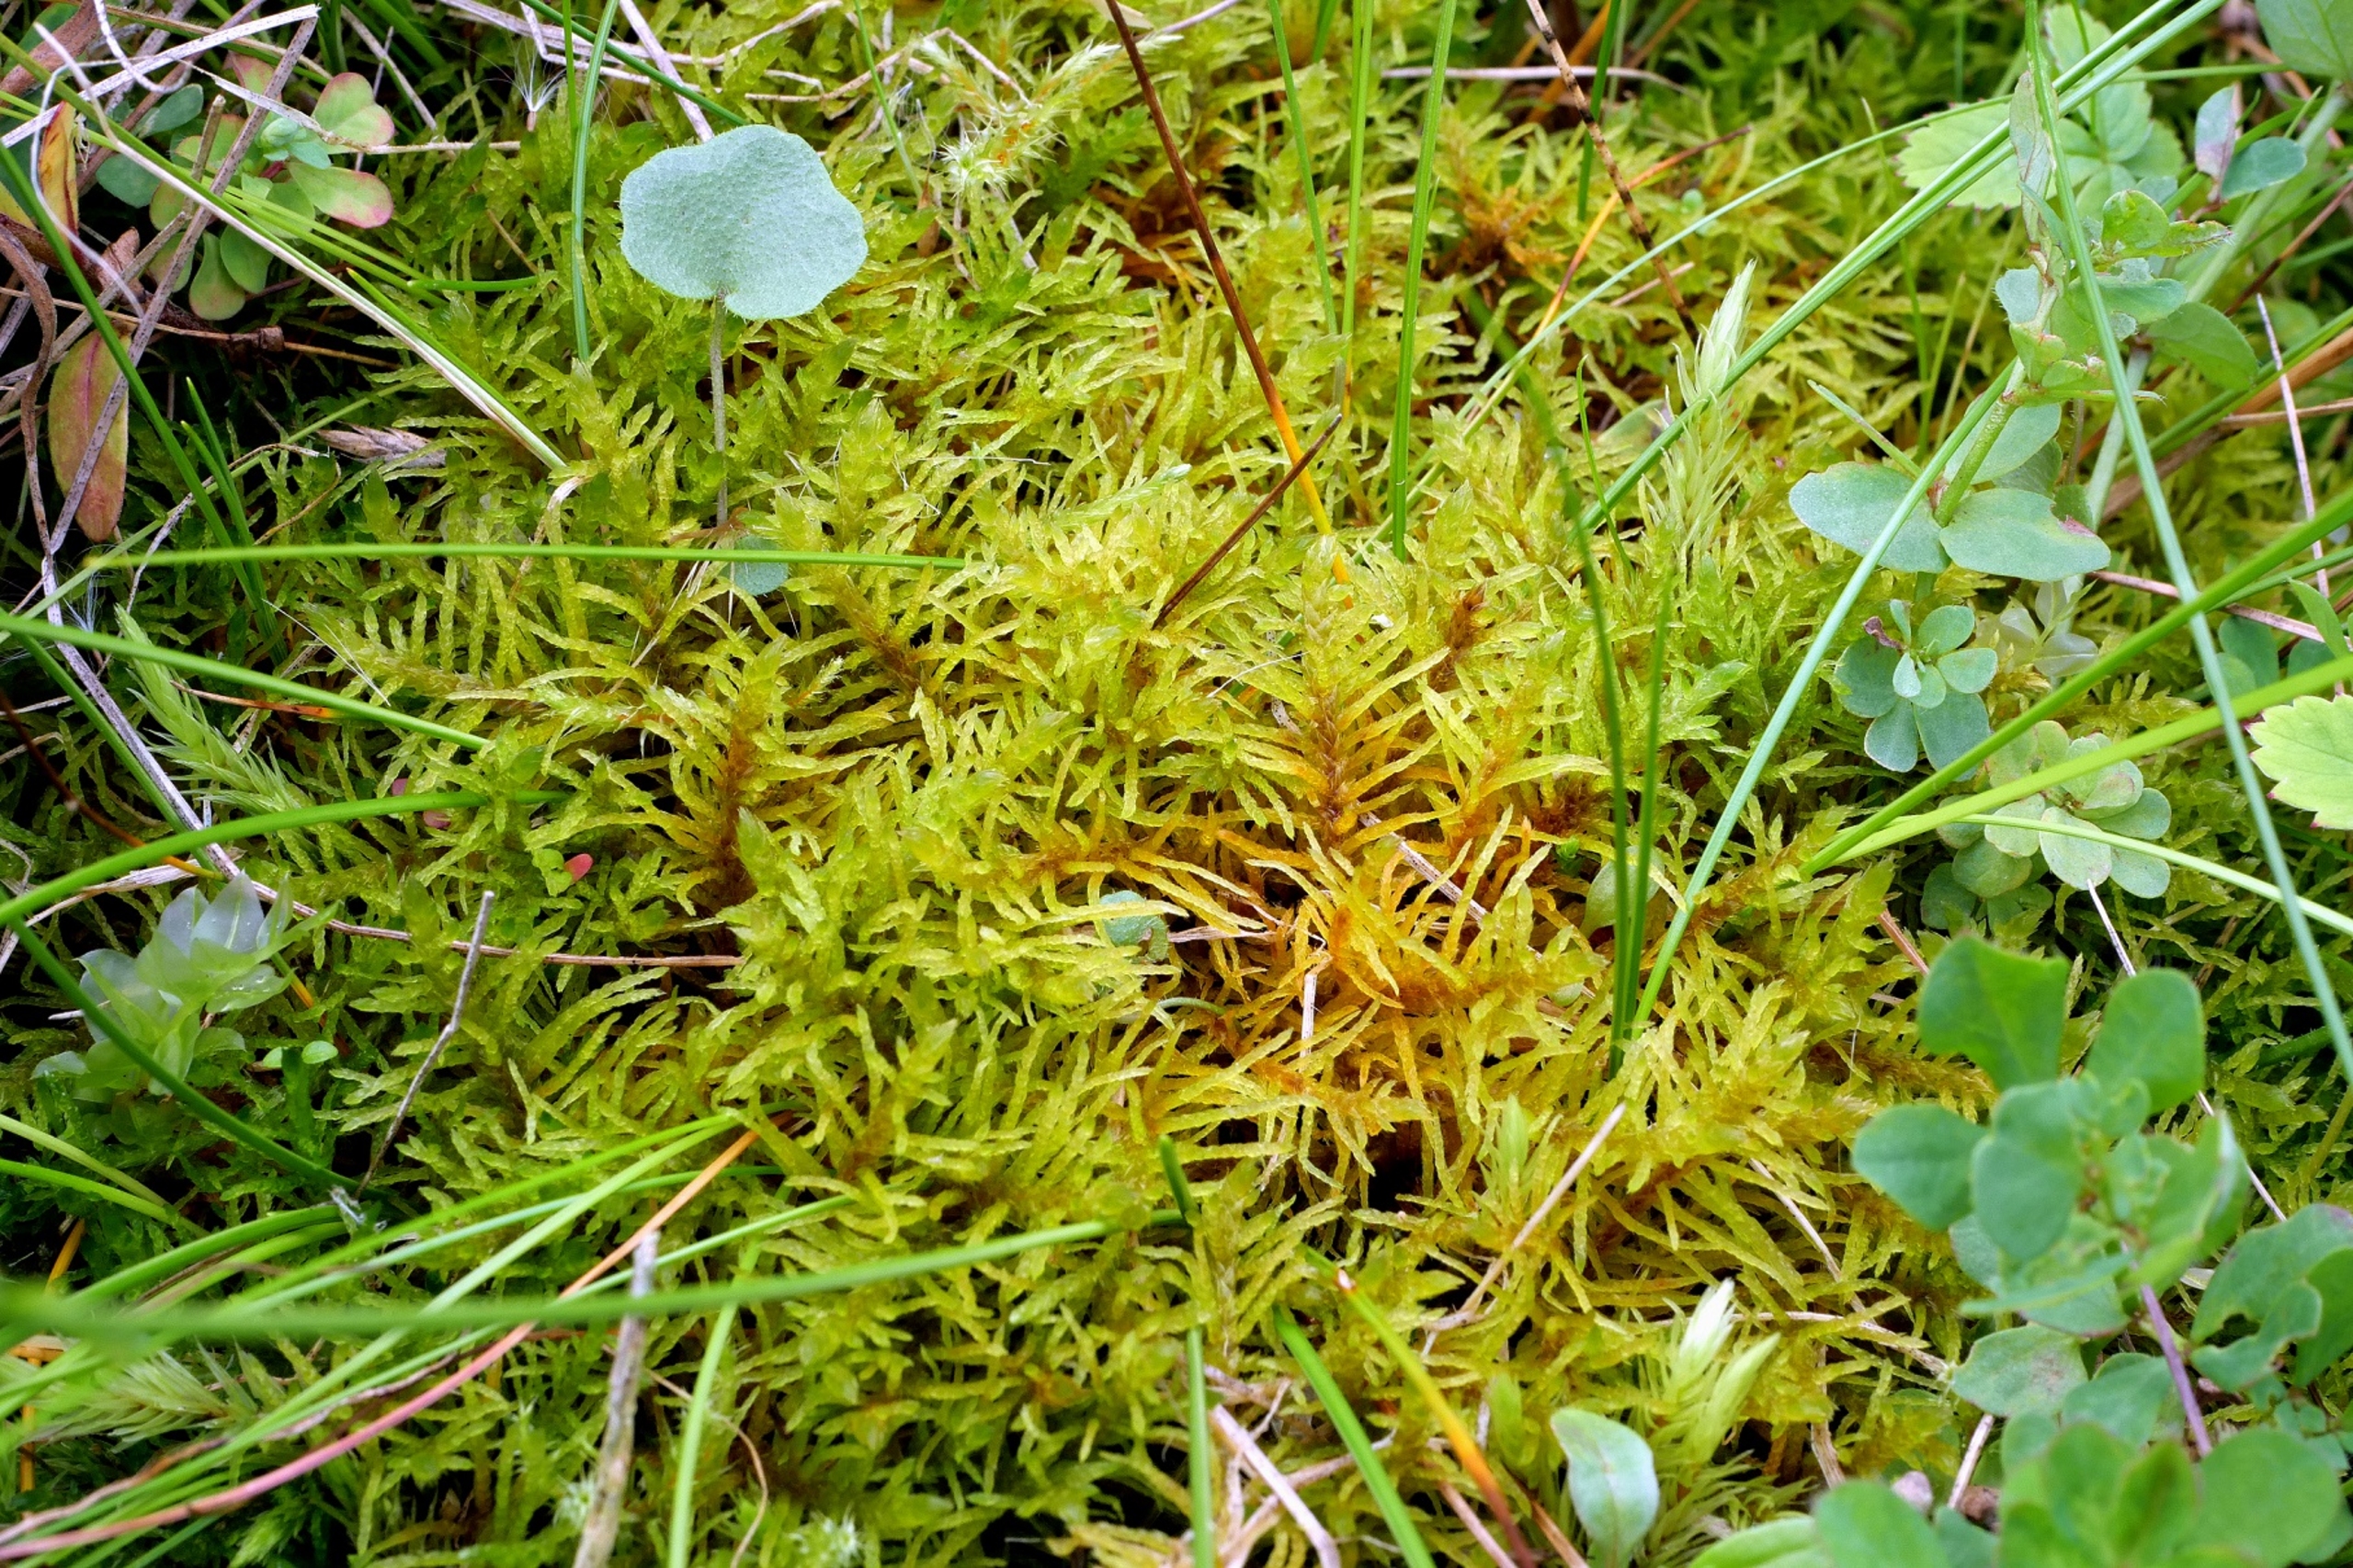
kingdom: Plantae
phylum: Bryophyta
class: Bryopsida
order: Hypnales
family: Helodiaceae
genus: Helodium
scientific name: Helodium blandowii
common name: Kær-gyldenmos
